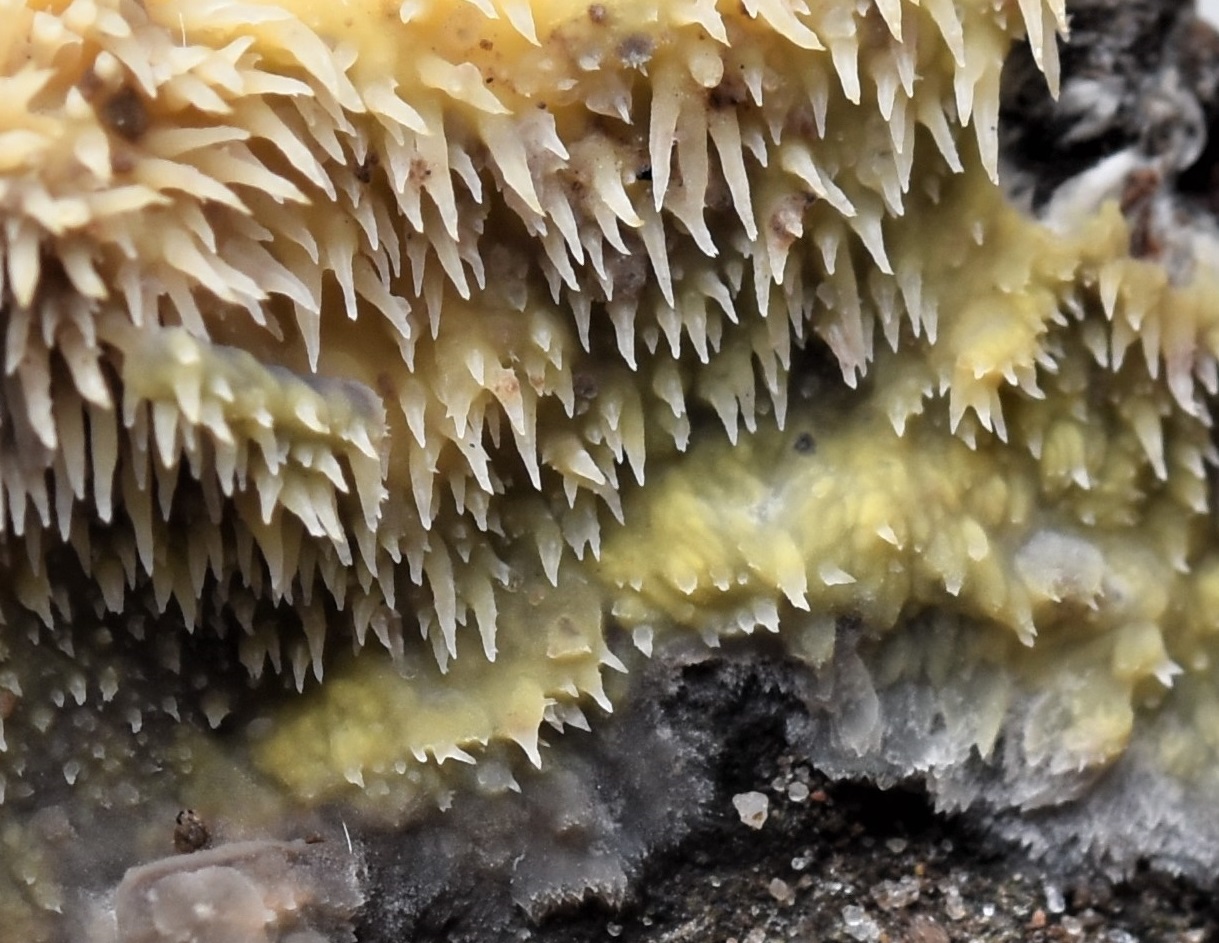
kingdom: Fungi
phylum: Basidiomycota
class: Agaricomycetes
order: Polyporales
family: Meruliaceae
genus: Mycoacia
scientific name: Mycoacia uda
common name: citrongul vokspig
